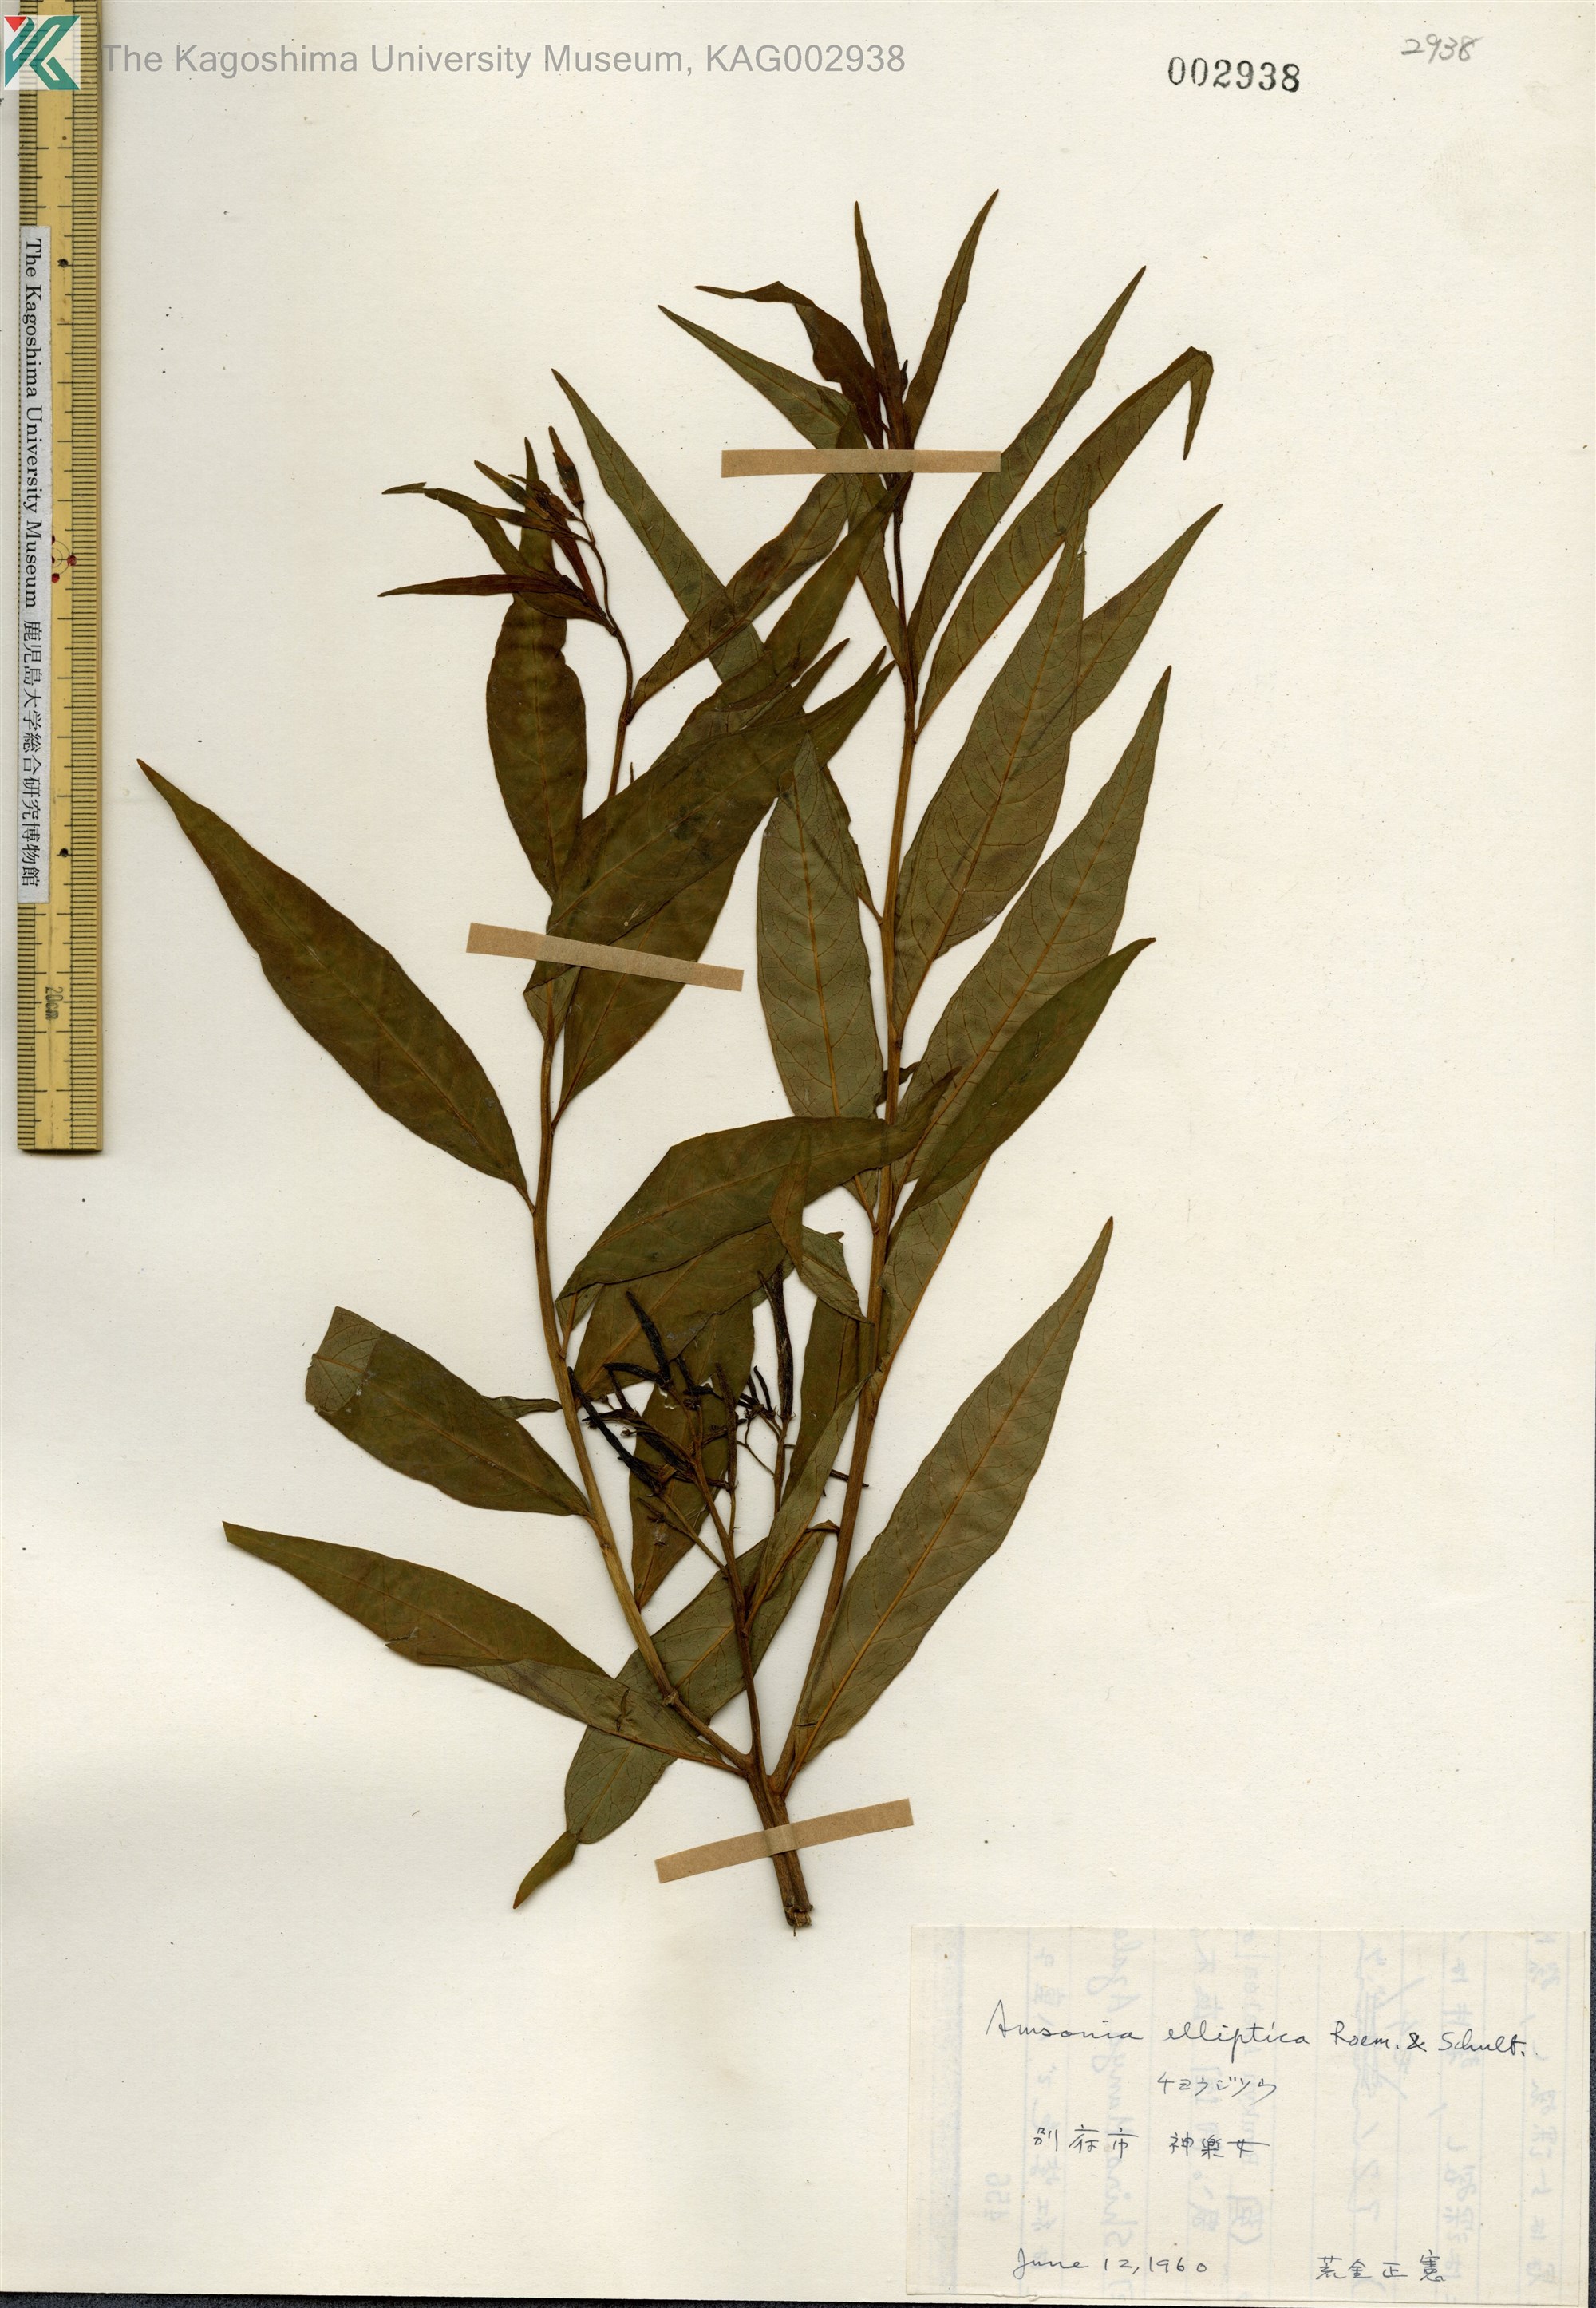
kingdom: Plantae
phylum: Tracheophyta
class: Magnoliopsida
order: Gentianales
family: Apocynaceae
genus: Amsonia
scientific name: Amsonia elliptica
